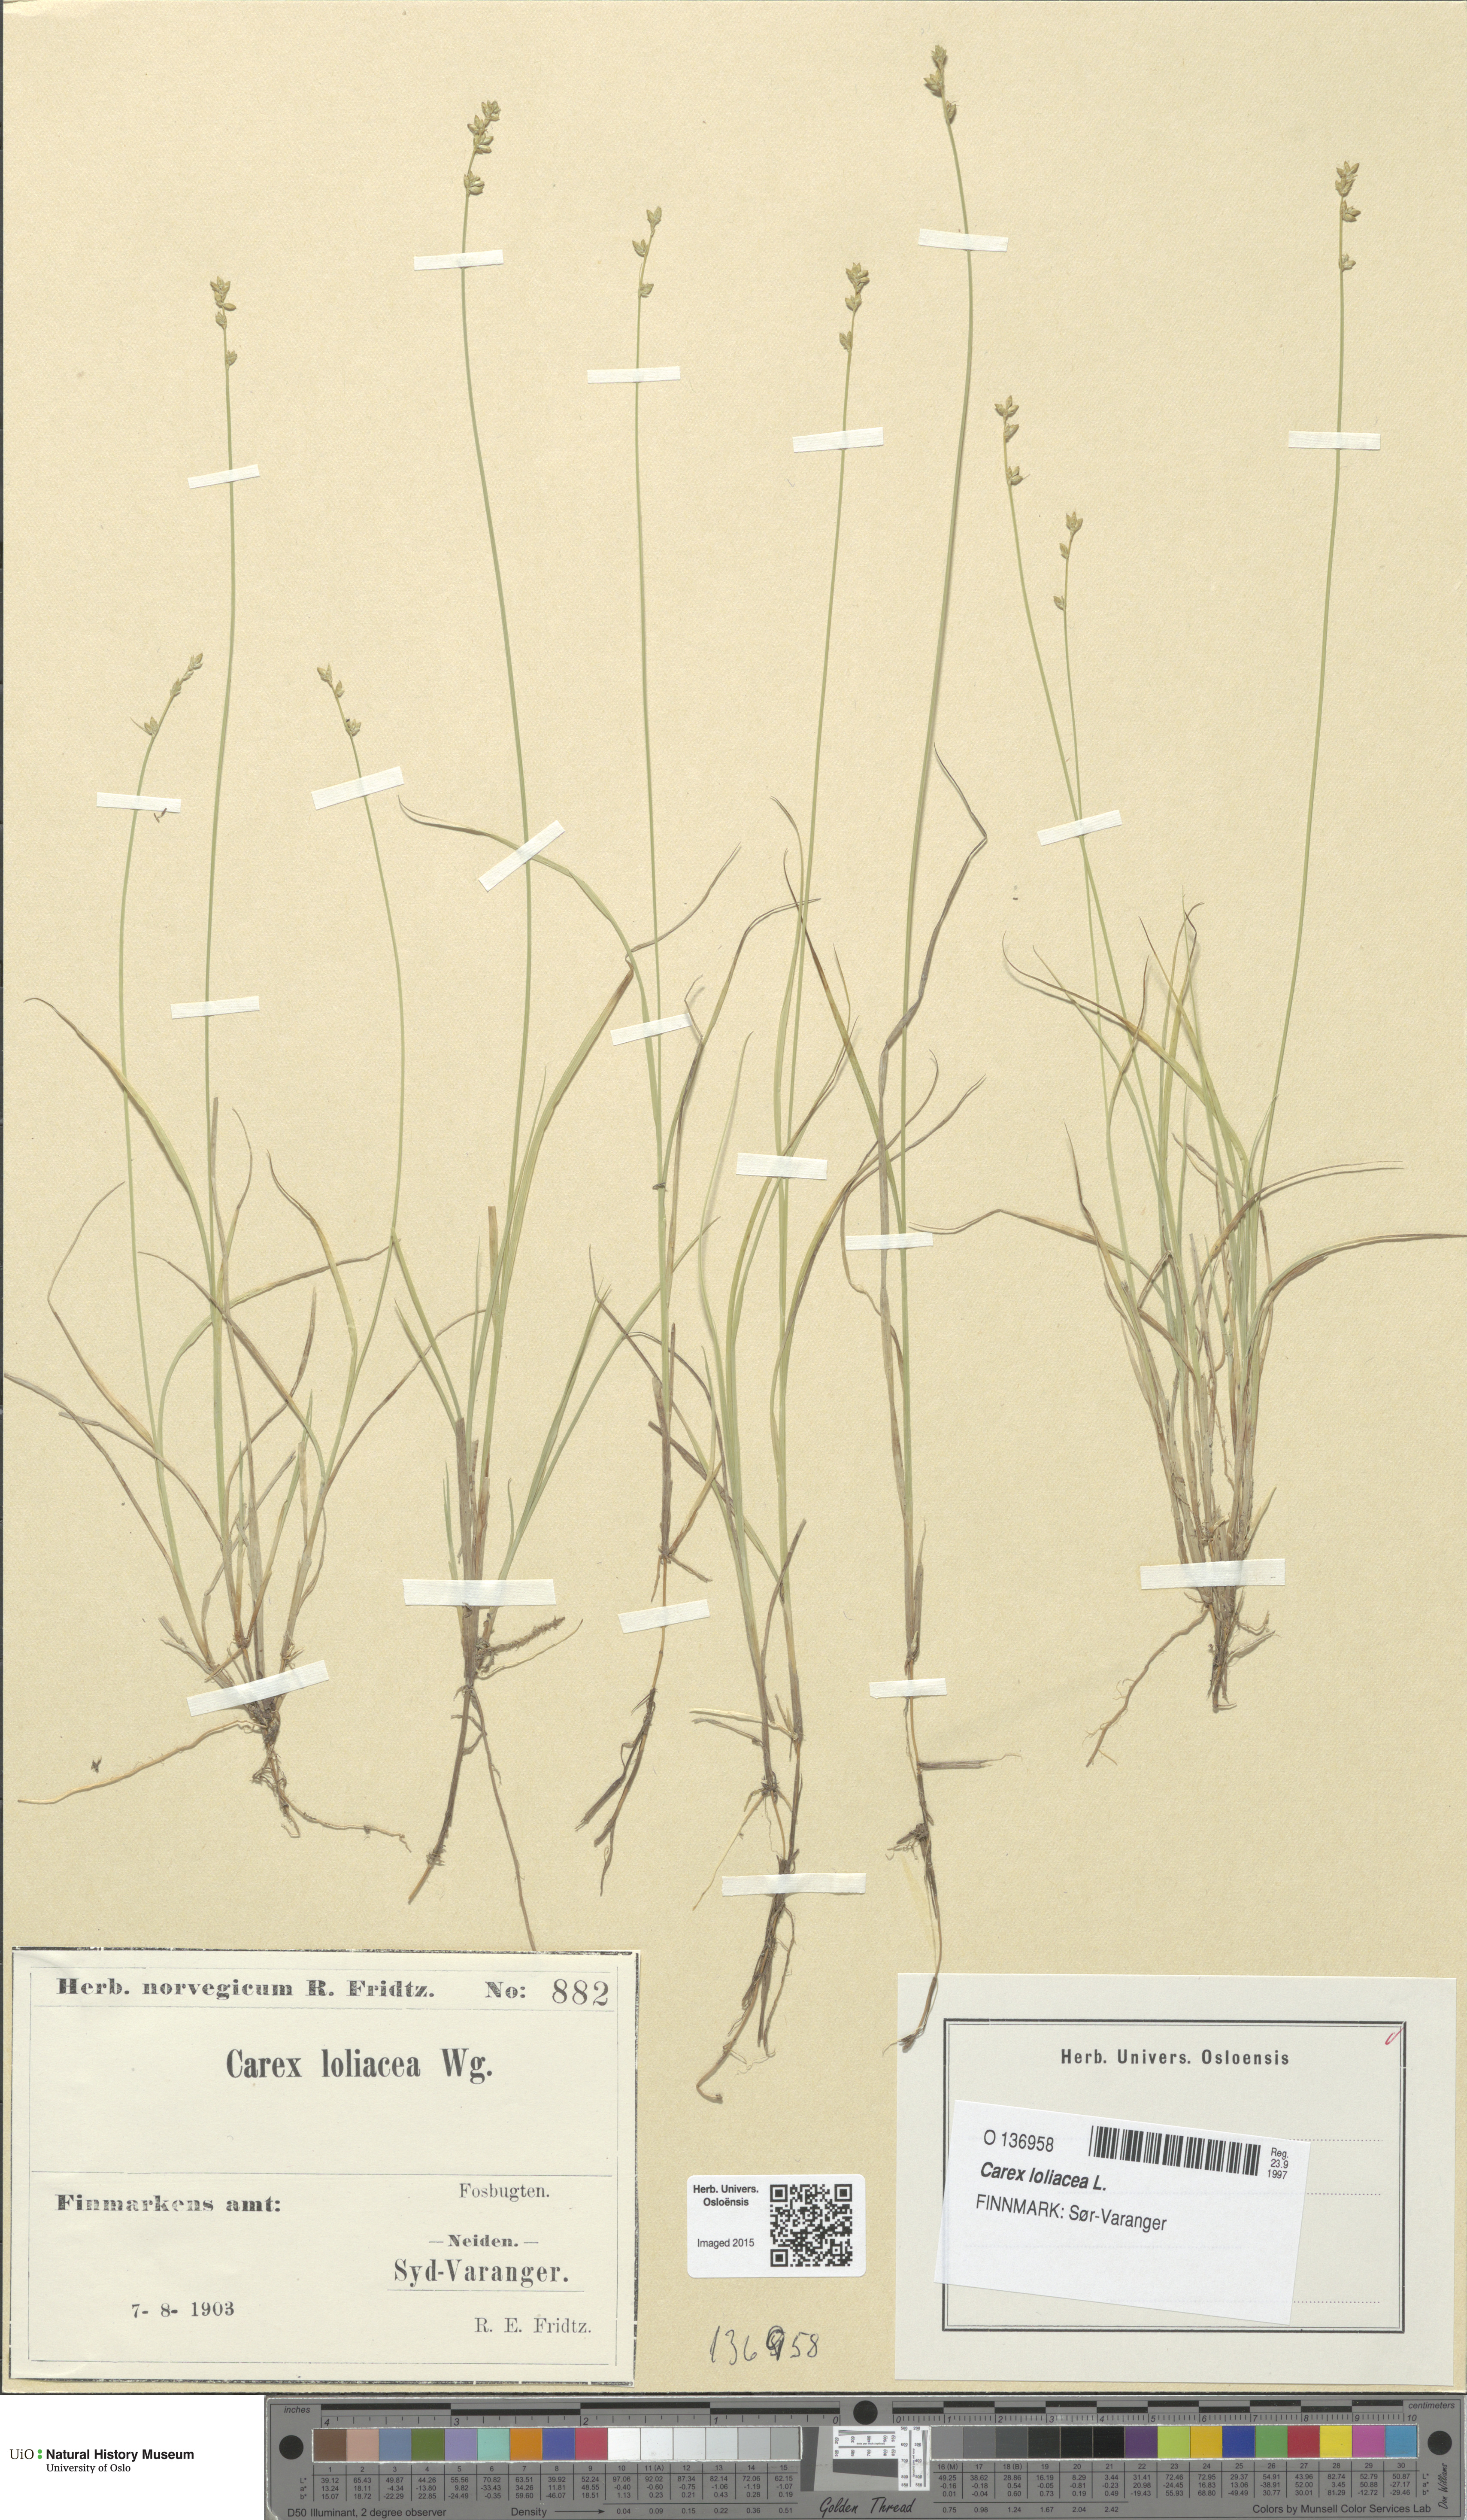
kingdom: Plantae
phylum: Tracheophyta
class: Liliopsida
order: Poales
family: Cyperaceae
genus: Carex
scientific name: Carex loliacea
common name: Ryegrass sedge
